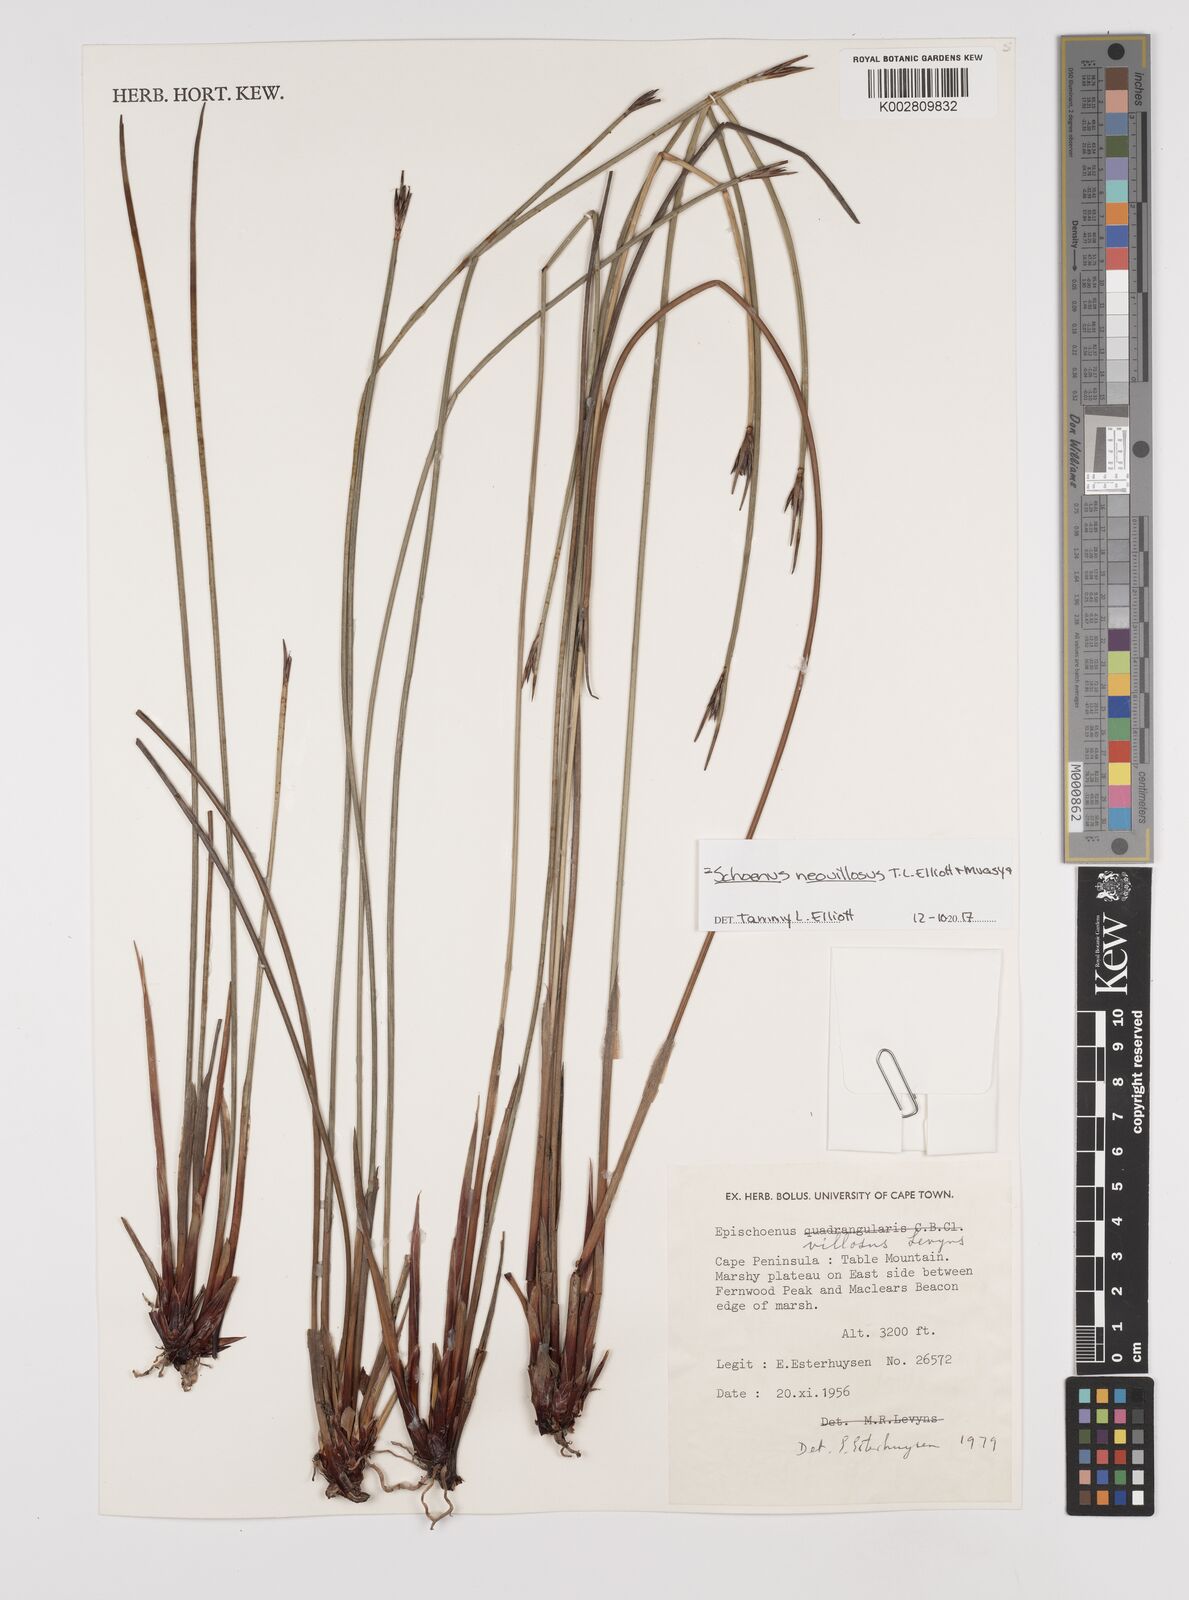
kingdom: Plantae
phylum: Tracheophyta
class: Liliopsida
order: Poales
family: Cyperaceae
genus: Schoenus
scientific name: Schoenus villosus
